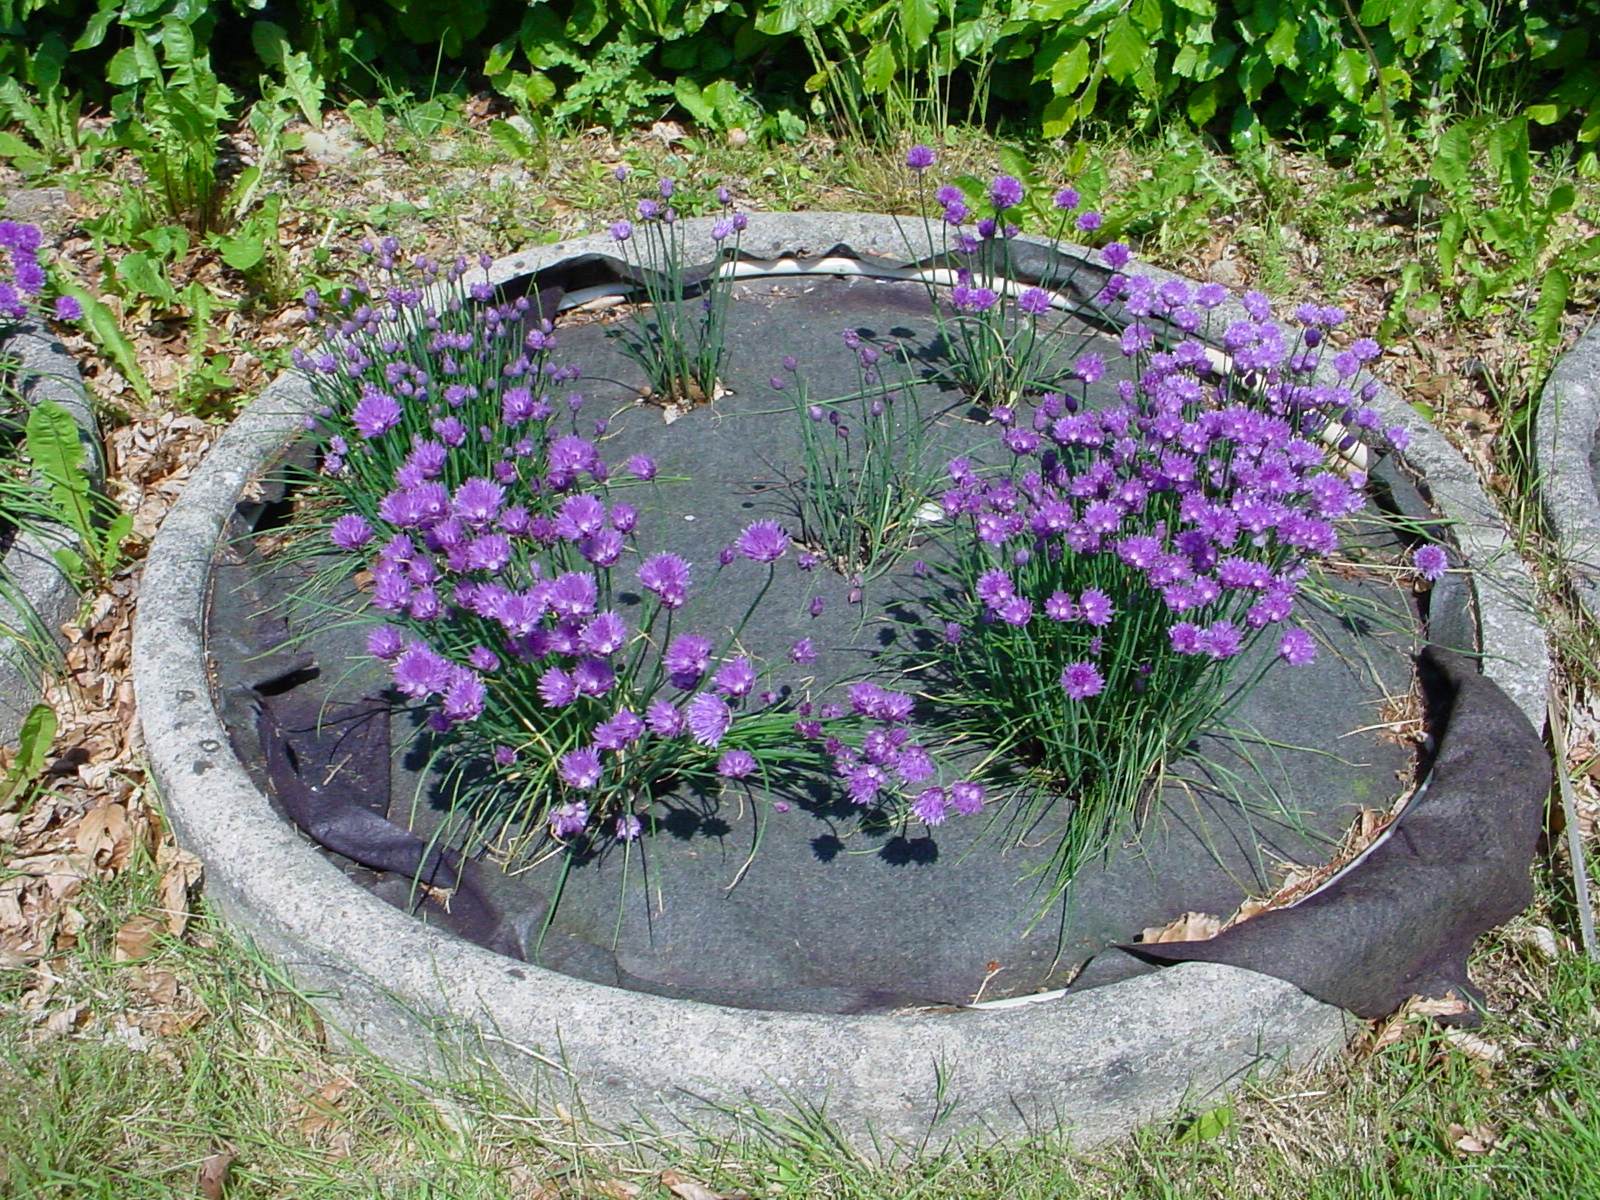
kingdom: Plantae
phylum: Tracheophyta
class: Liliopsida
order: Asparagales
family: Amaryllidaceae
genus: Allium
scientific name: Allium schoenoprasum
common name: Chives
